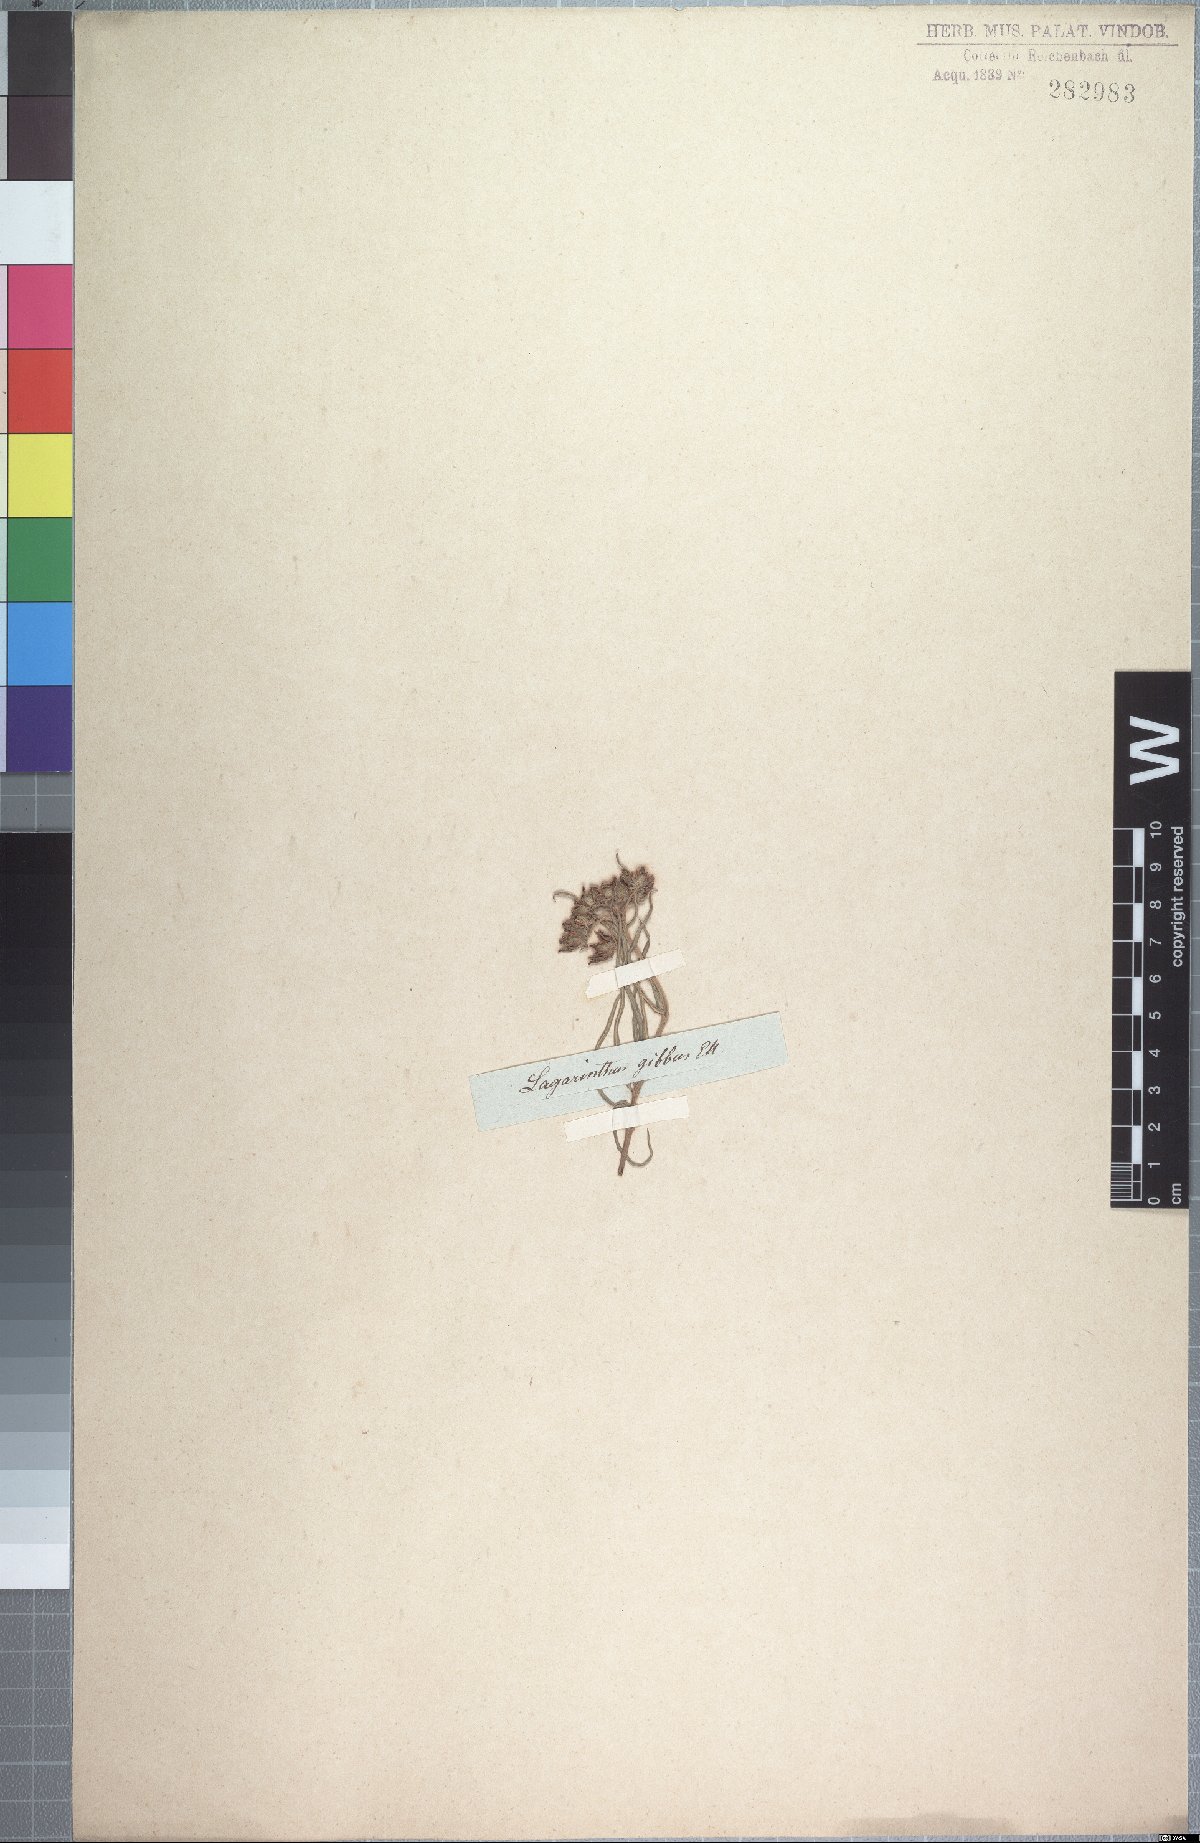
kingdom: Plantae
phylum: Tracheophyta
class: Magnoliopsida
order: Gentianales
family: Apocynaceae
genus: Asclepias
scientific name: Asclepias gibba
